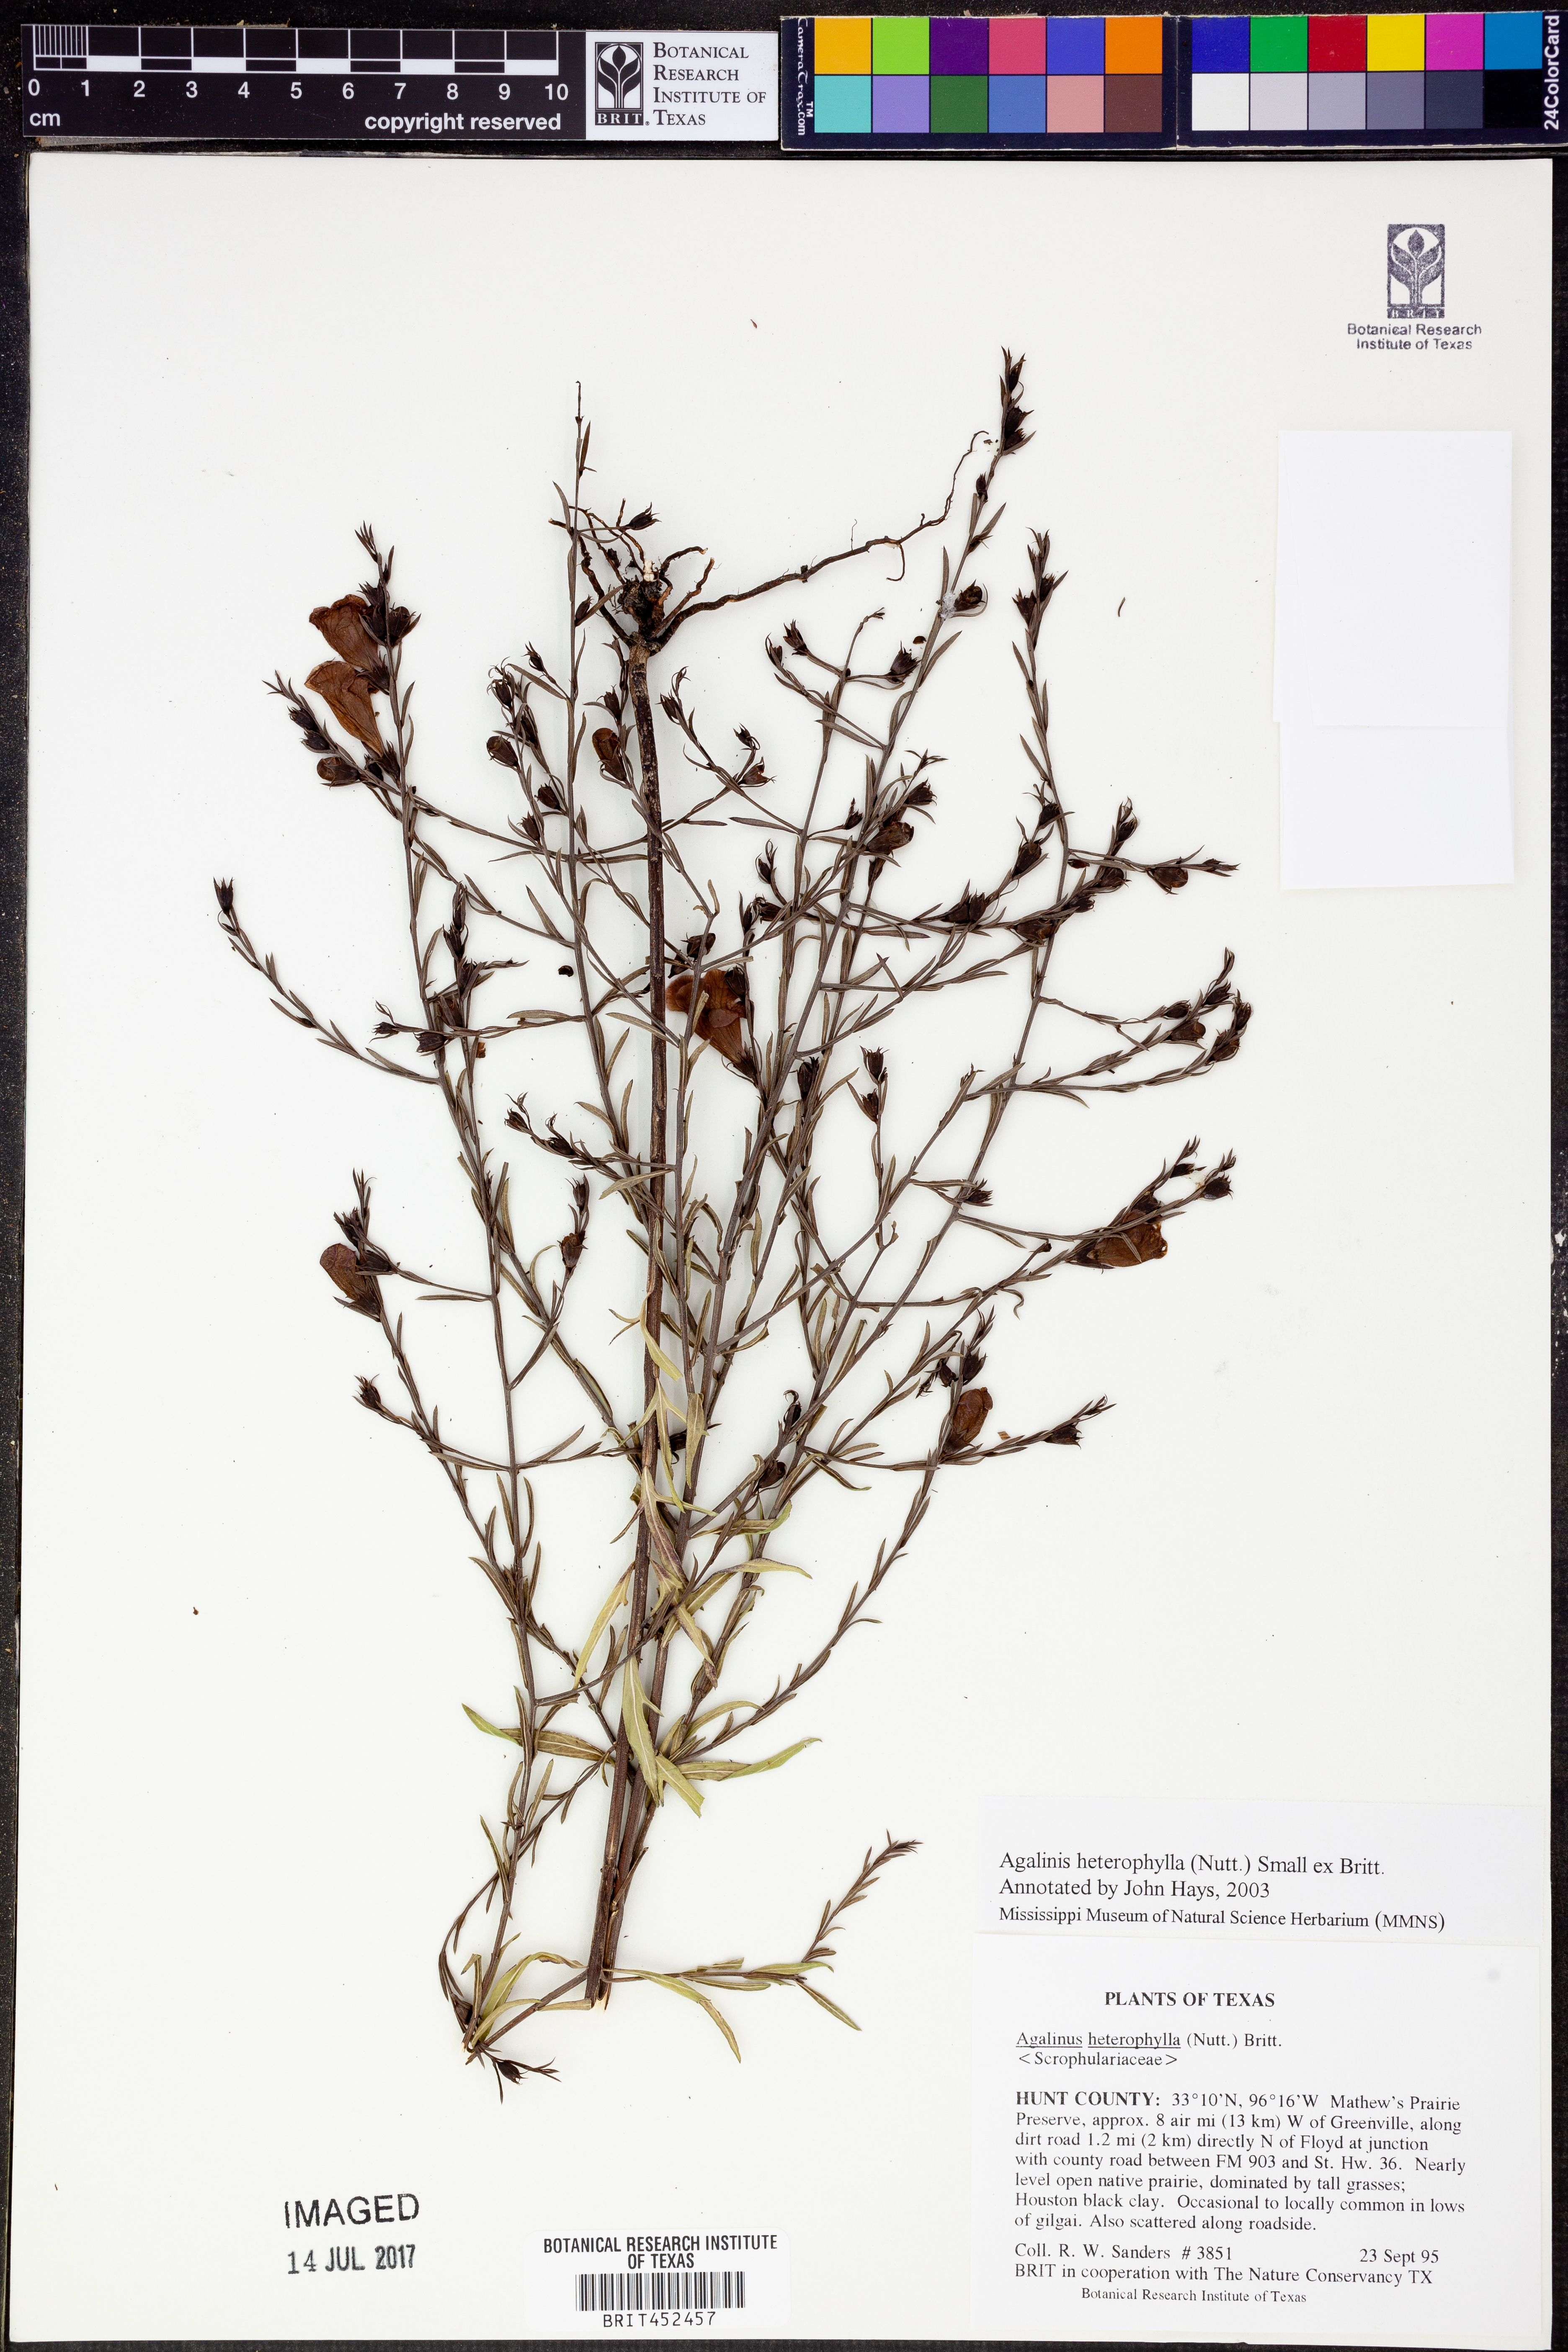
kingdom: Plantae
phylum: Tracheophyta
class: Magnoliopsida
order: Lamiales
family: Orobanchaceae
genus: Agalinis
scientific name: Agalinis heterophylla
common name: Prairie agalinis
